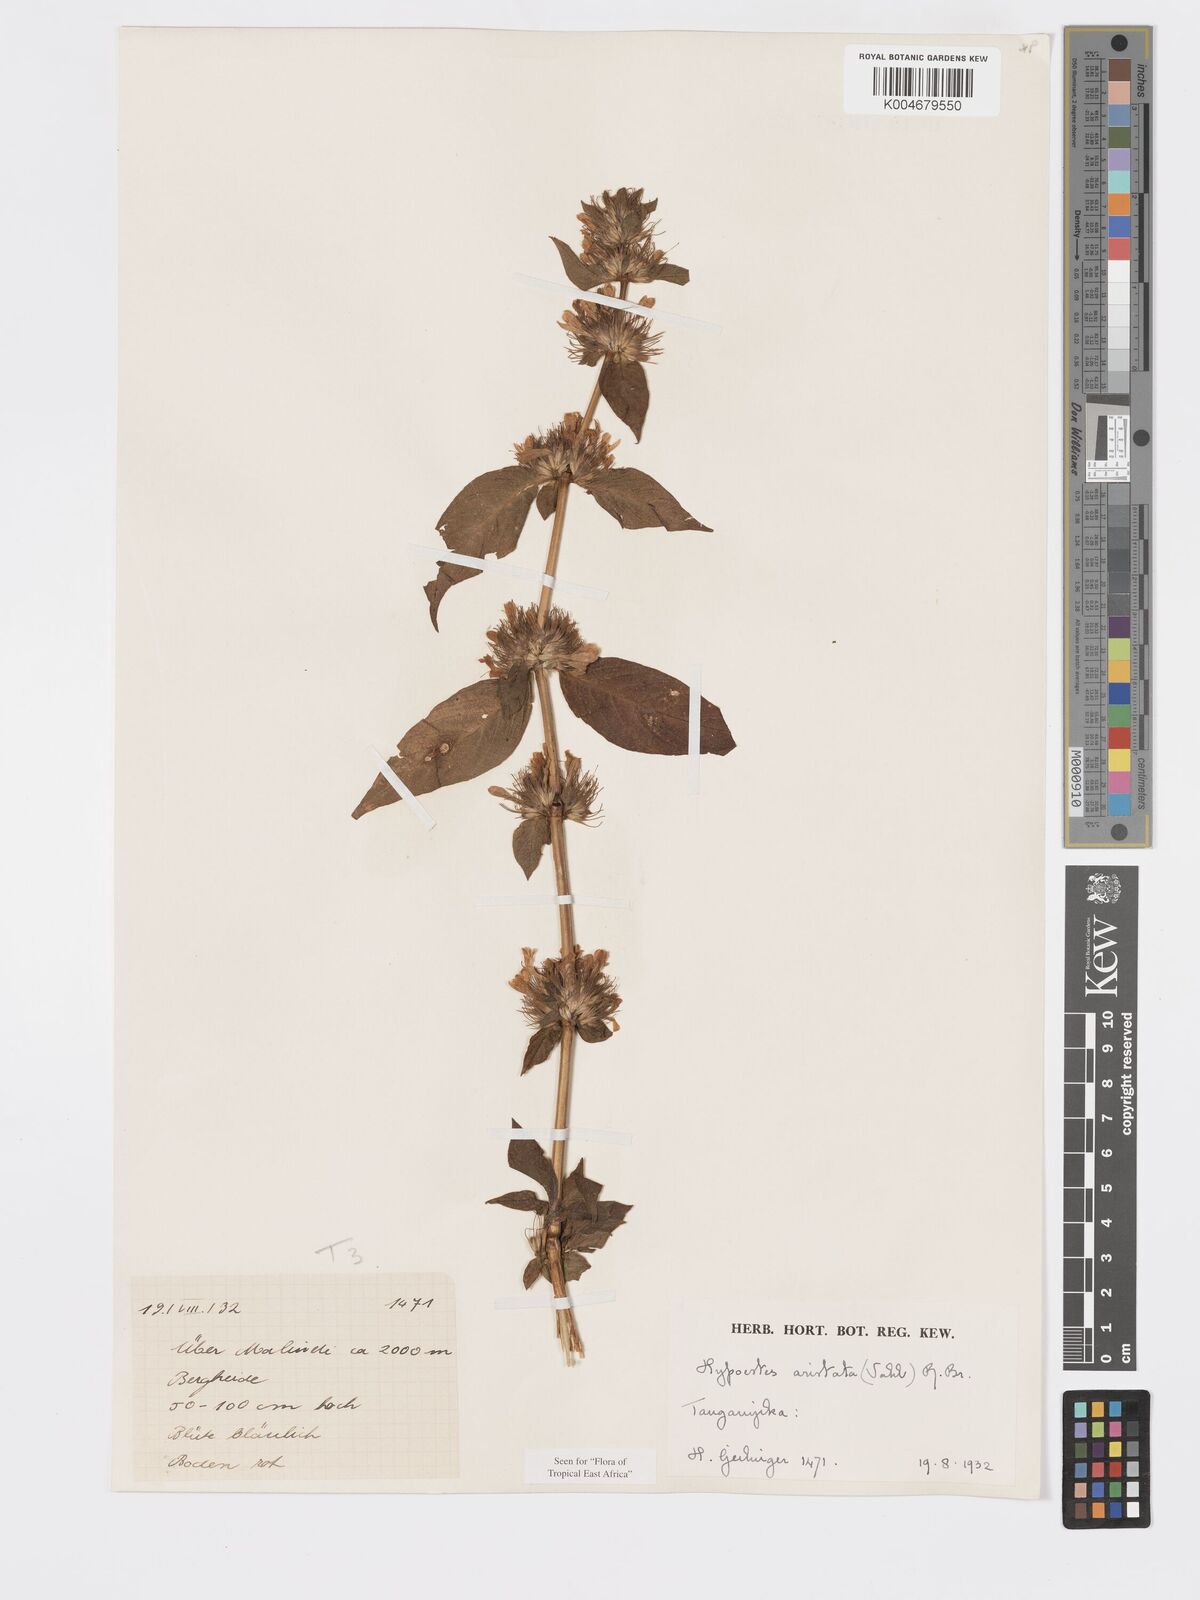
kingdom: Plantae
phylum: Tracheophyta
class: Magnoliopsida
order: Lamiales
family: Acanthaceae
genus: Hypoestes
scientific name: Hypoestes aristata
